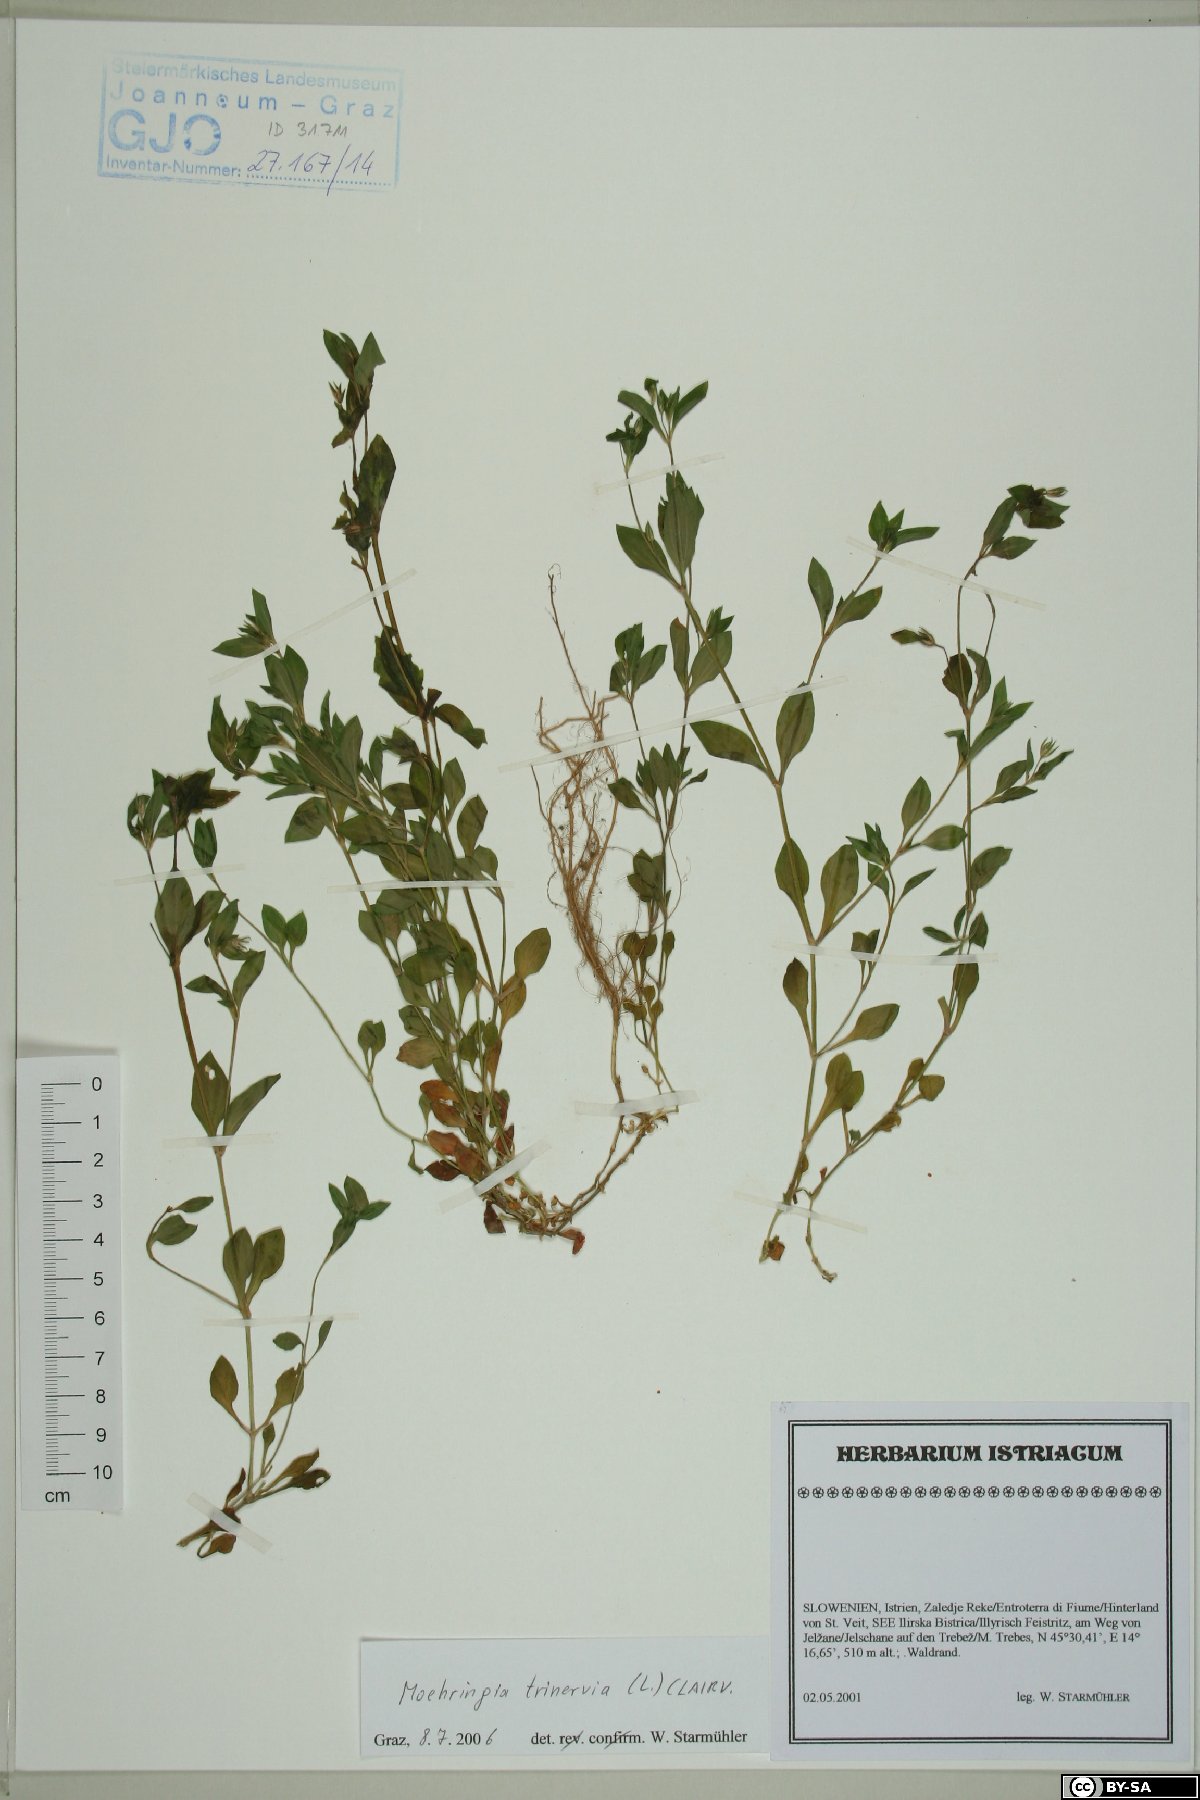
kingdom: Plantae
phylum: Tracheophyta
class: Magnoliopsida
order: Caryophyllales
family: Caryophyllaceae
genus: Moehringia
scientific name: Moehringia trinervia
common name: Three-nerved sandwort
